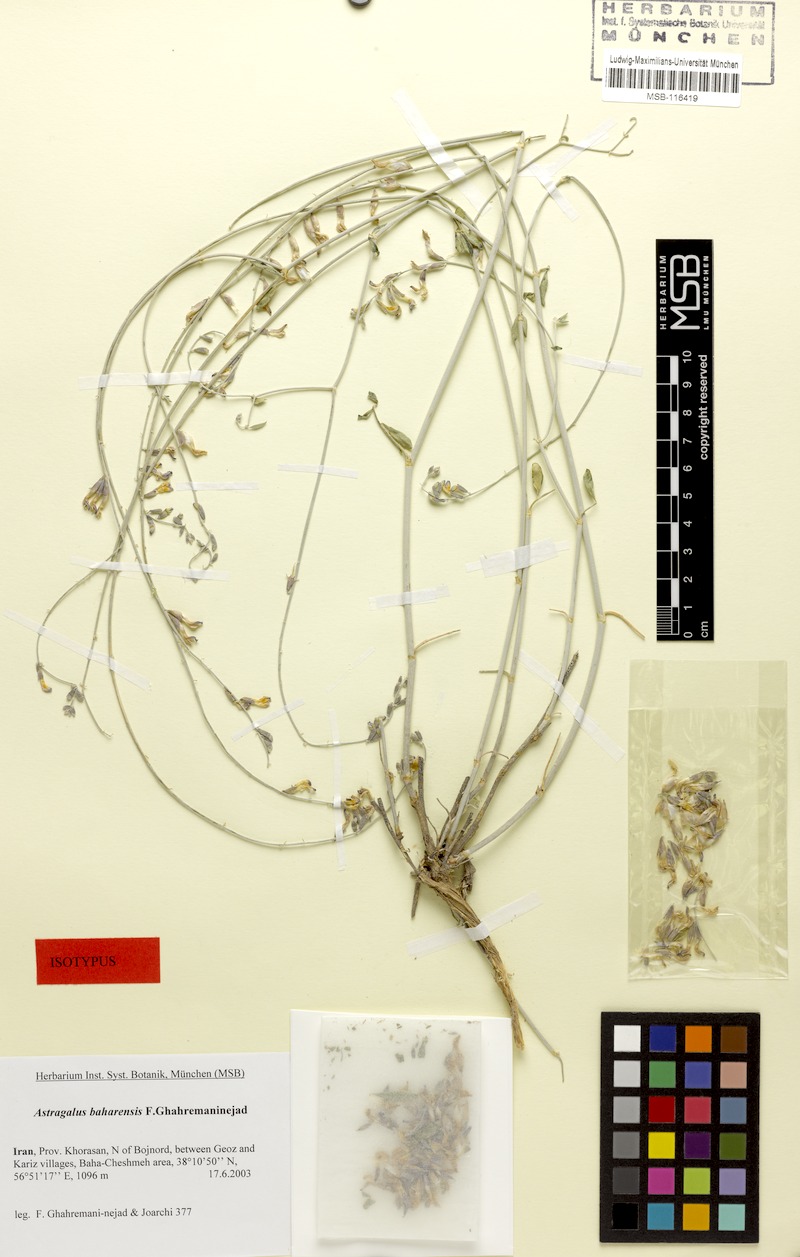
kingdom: Plantae
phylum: Tracheophyta
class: Magnoliopsida
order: Fabales
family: Fabaceae
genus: Astragalus
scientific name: Astragalus baharensis
